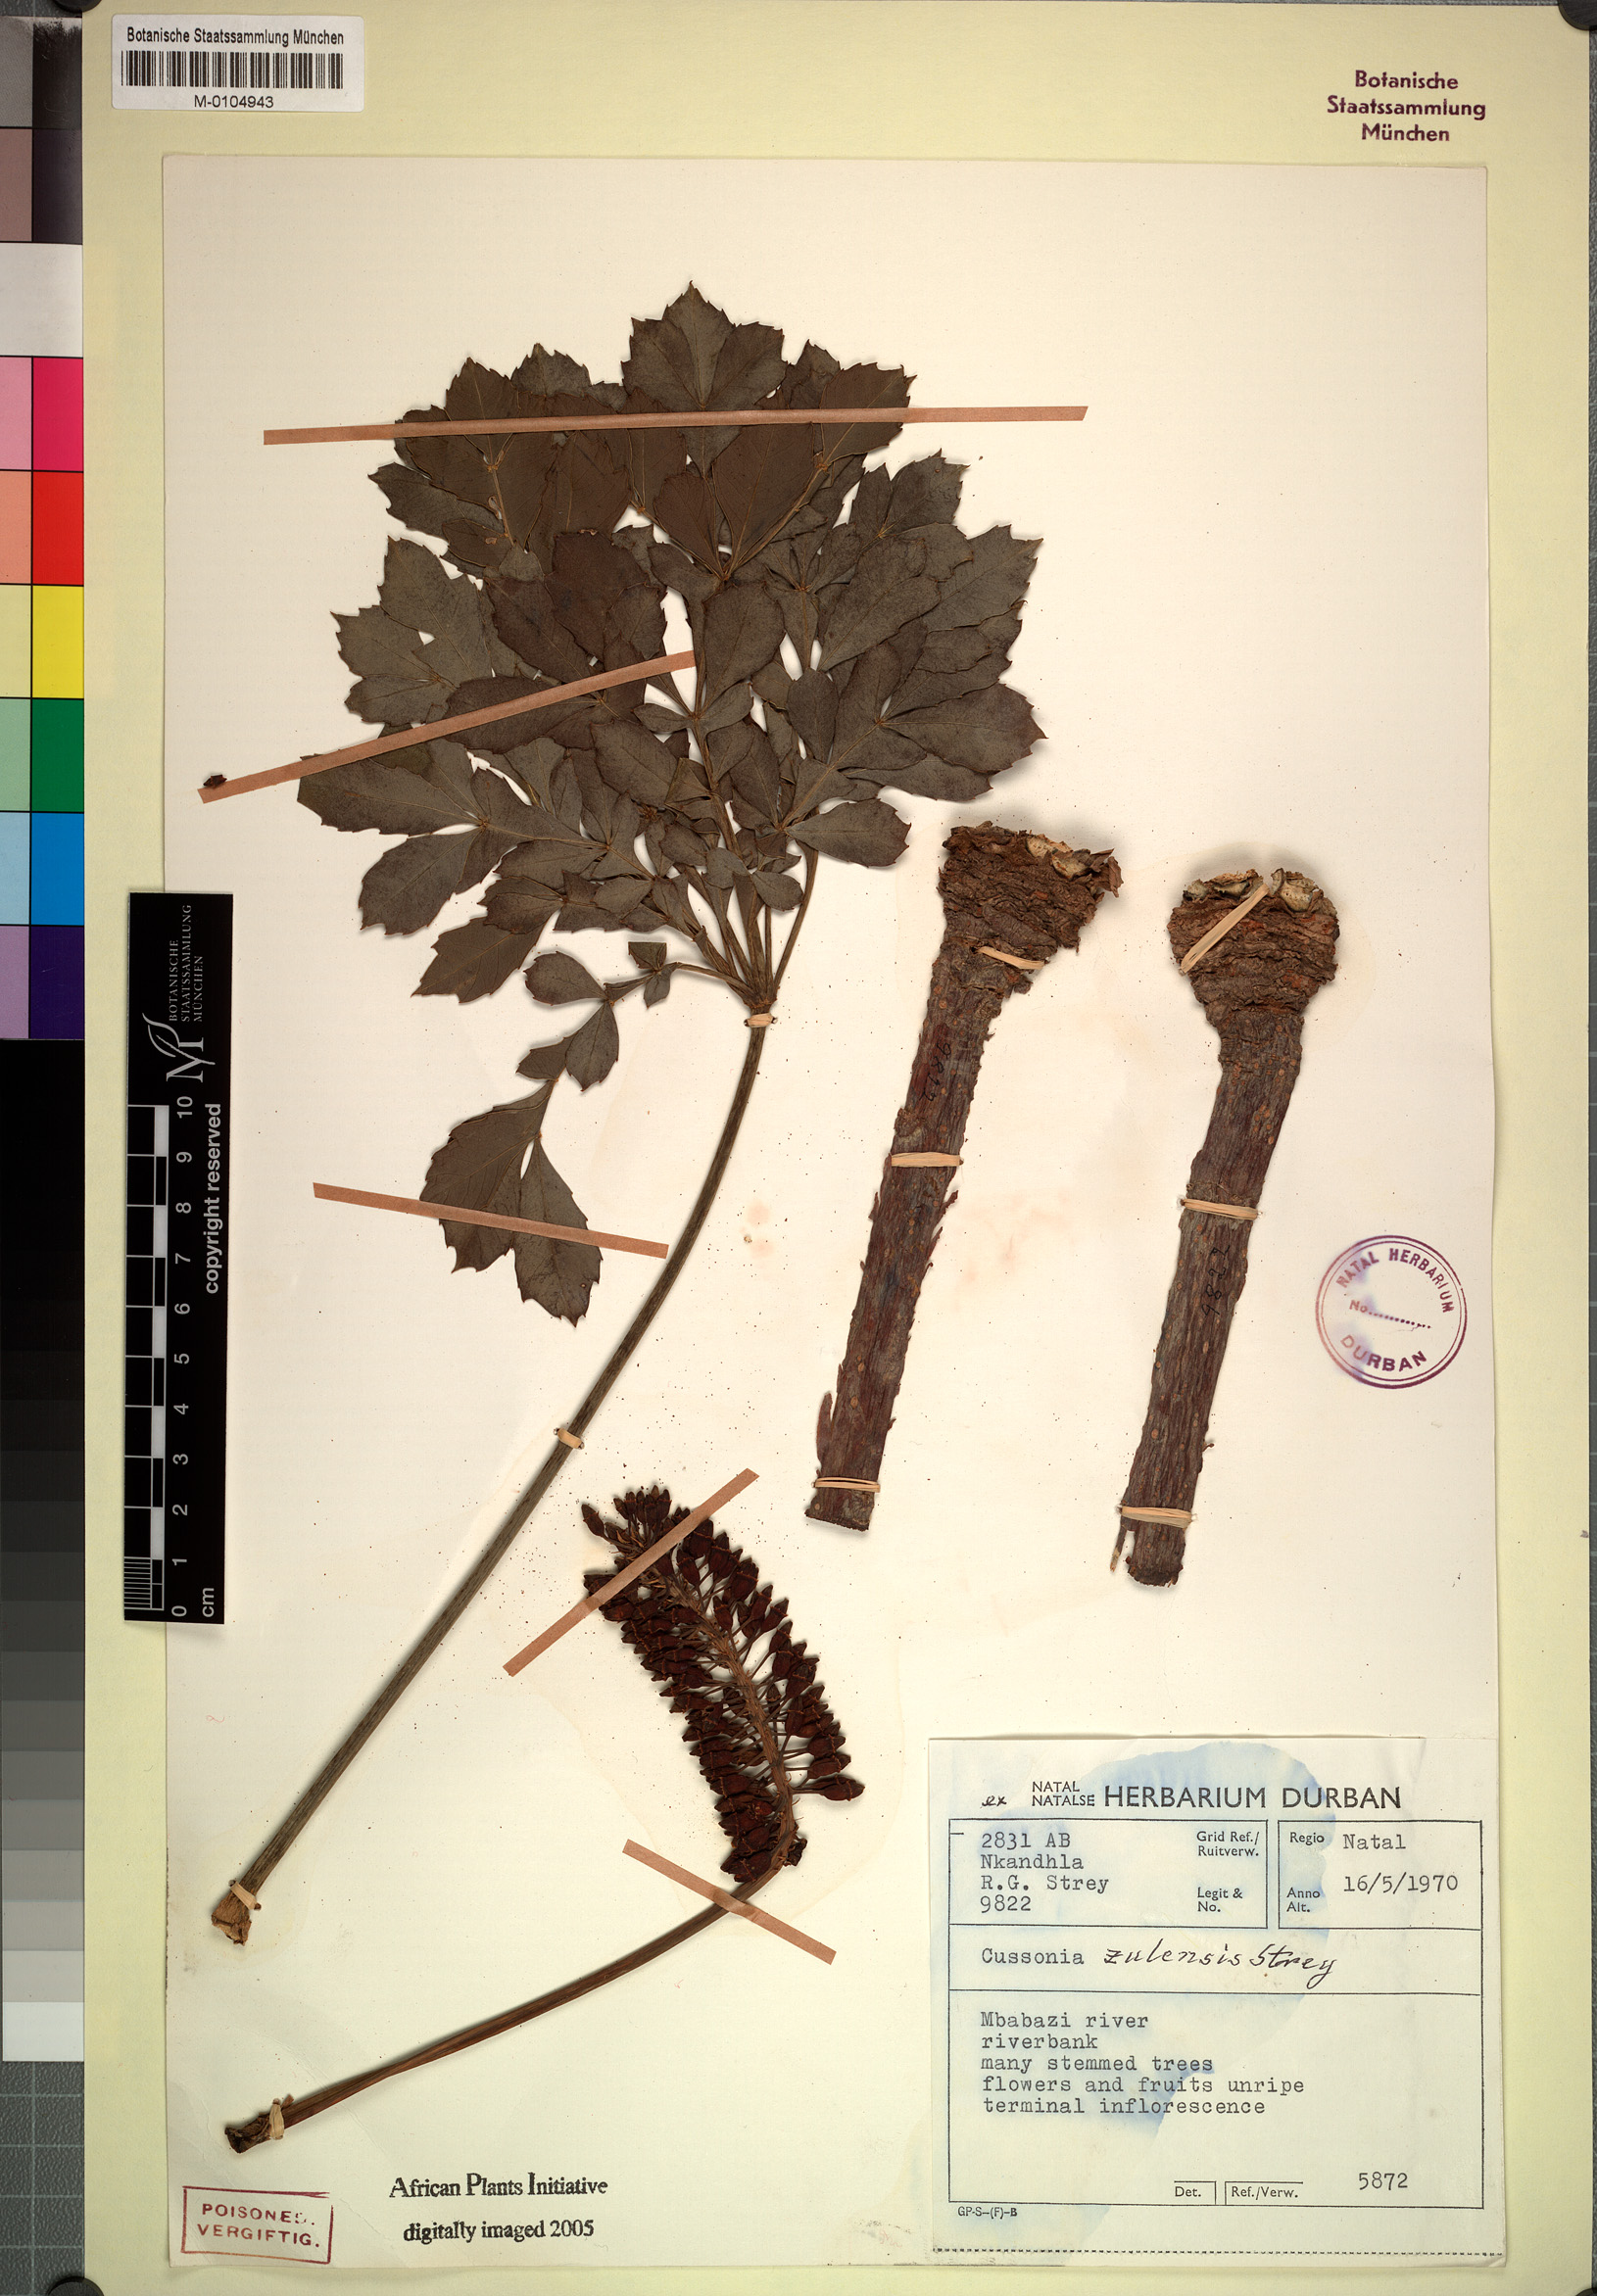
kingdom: Plantae
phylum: Tracheophyta
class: Magnoliopsida
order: Apiales
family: Araliaceae
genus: Cussonia
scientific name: Cussonia zuluensis
